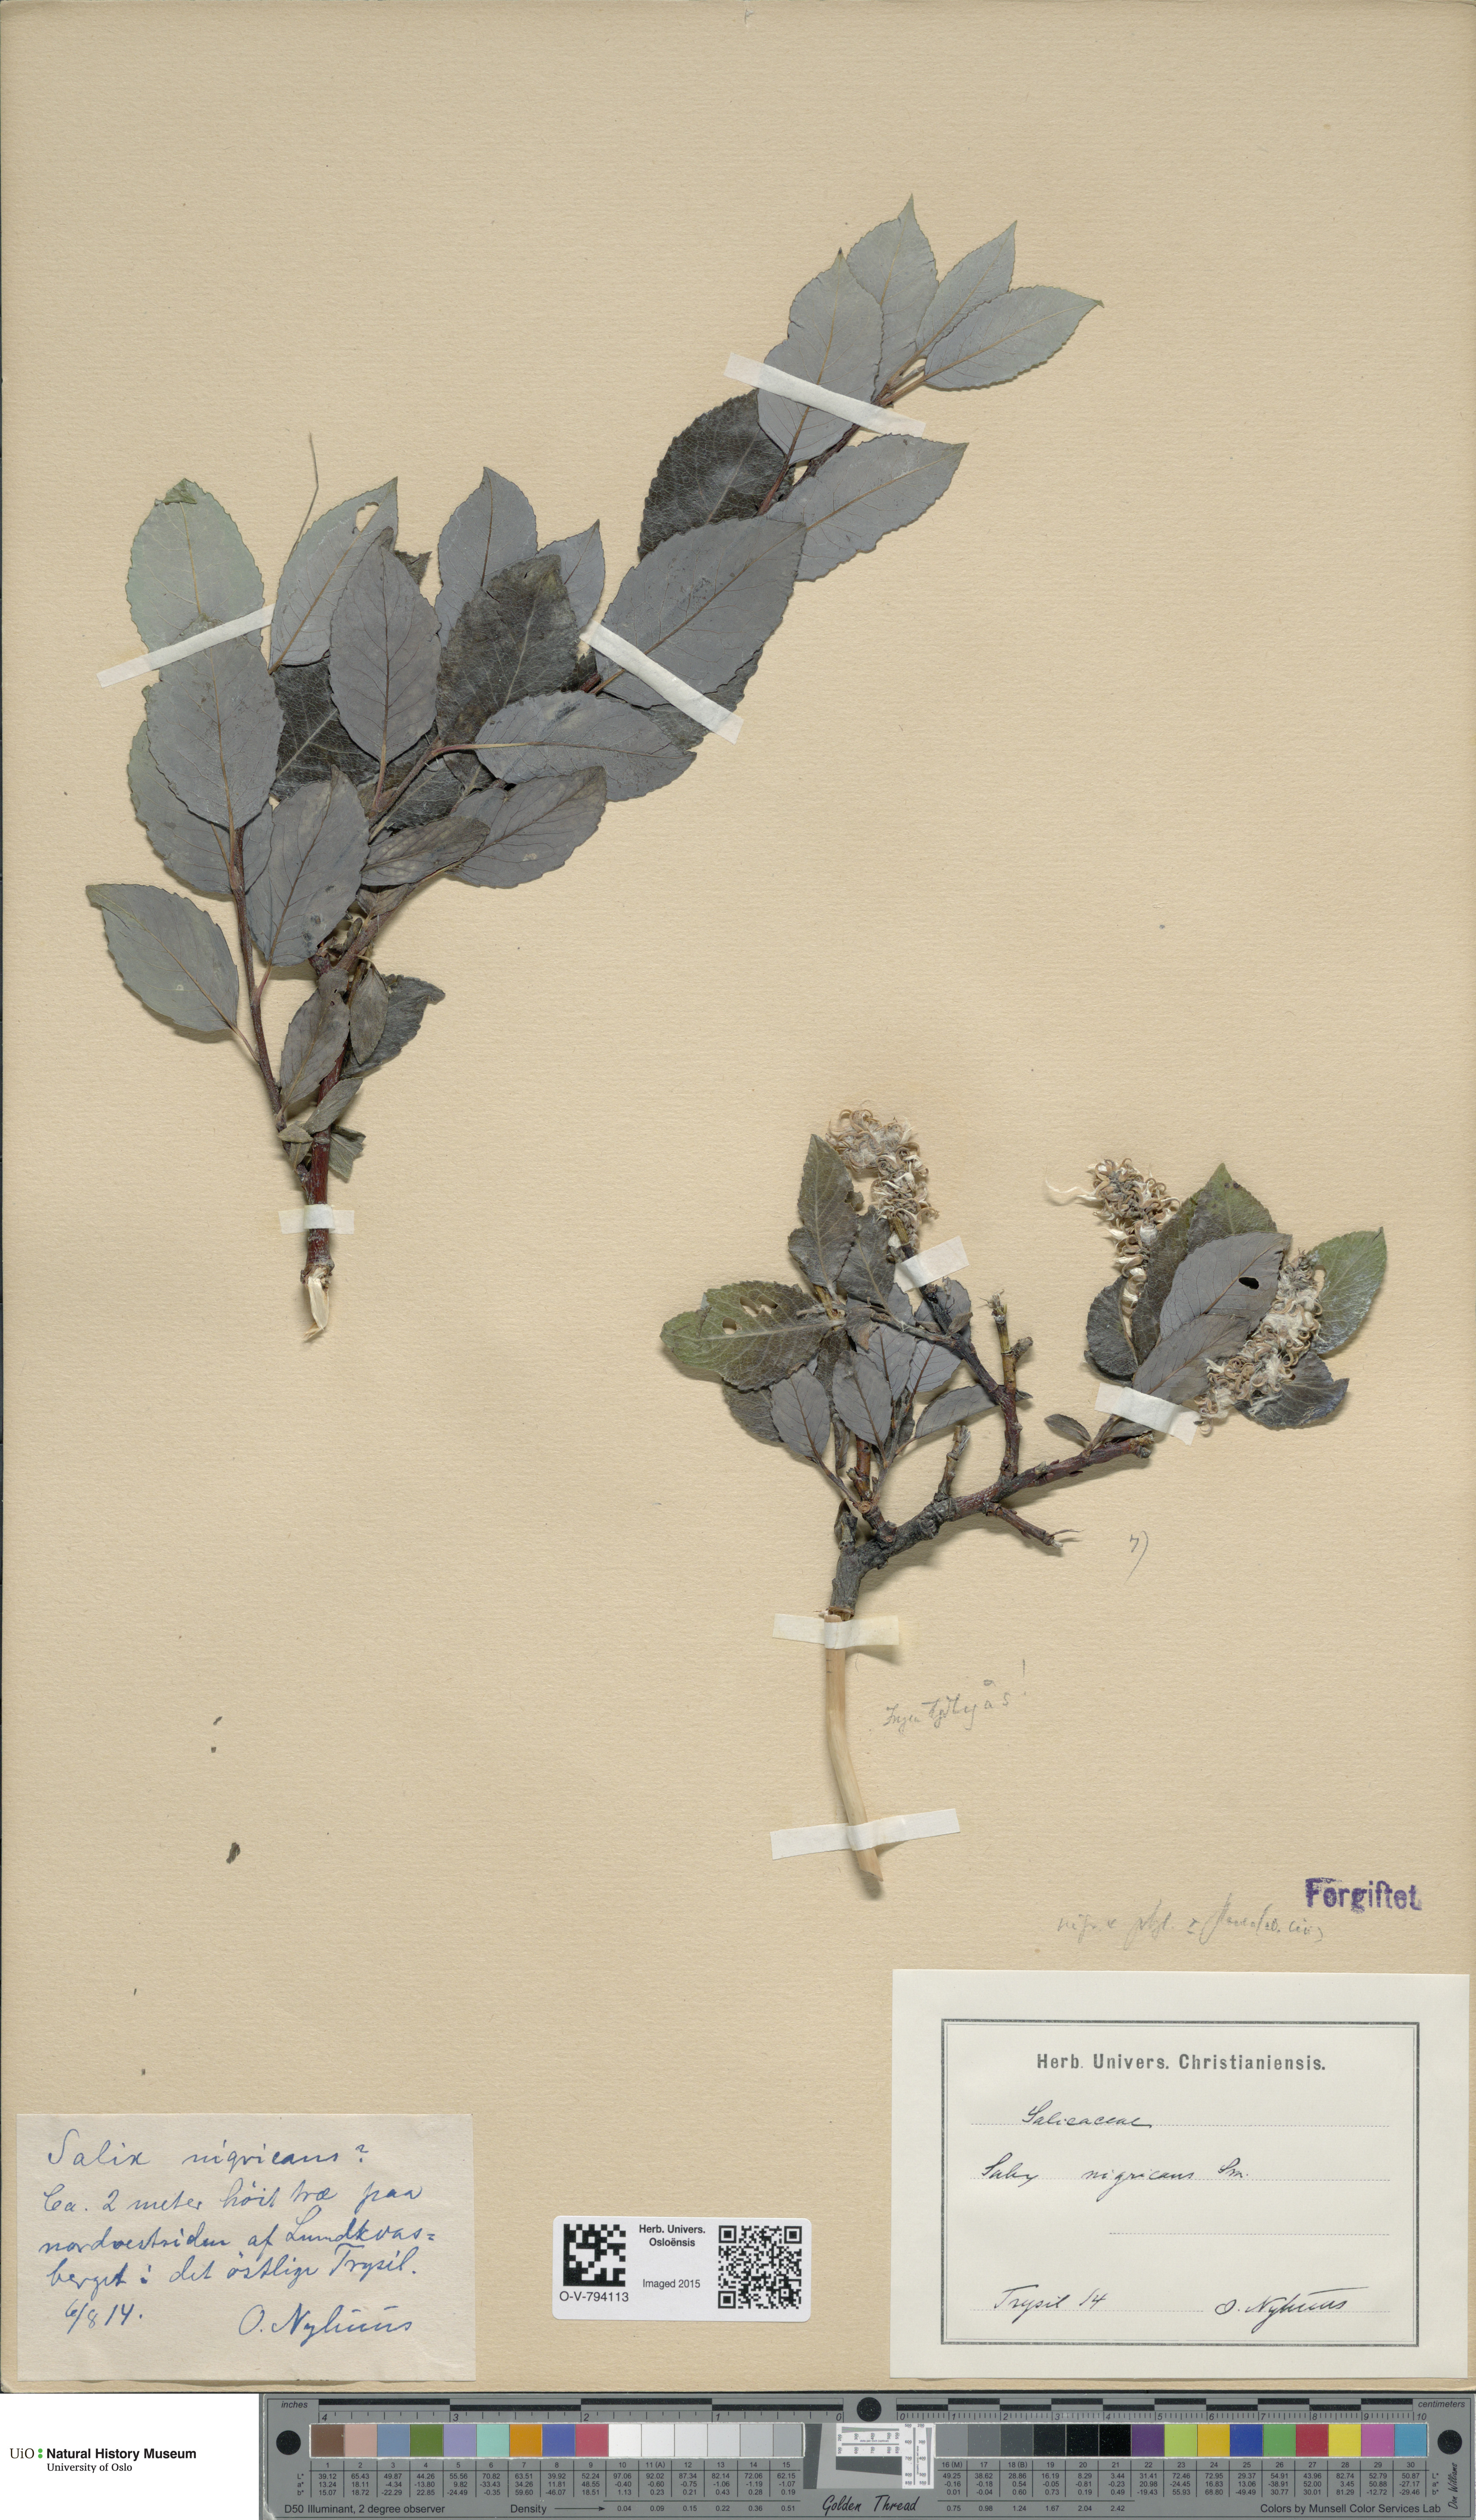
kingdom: Plantae
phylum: Tracheophyta
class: Magnoliopsida
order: Malpighiales
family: Salicaceae
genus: Salix
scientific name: Salix
